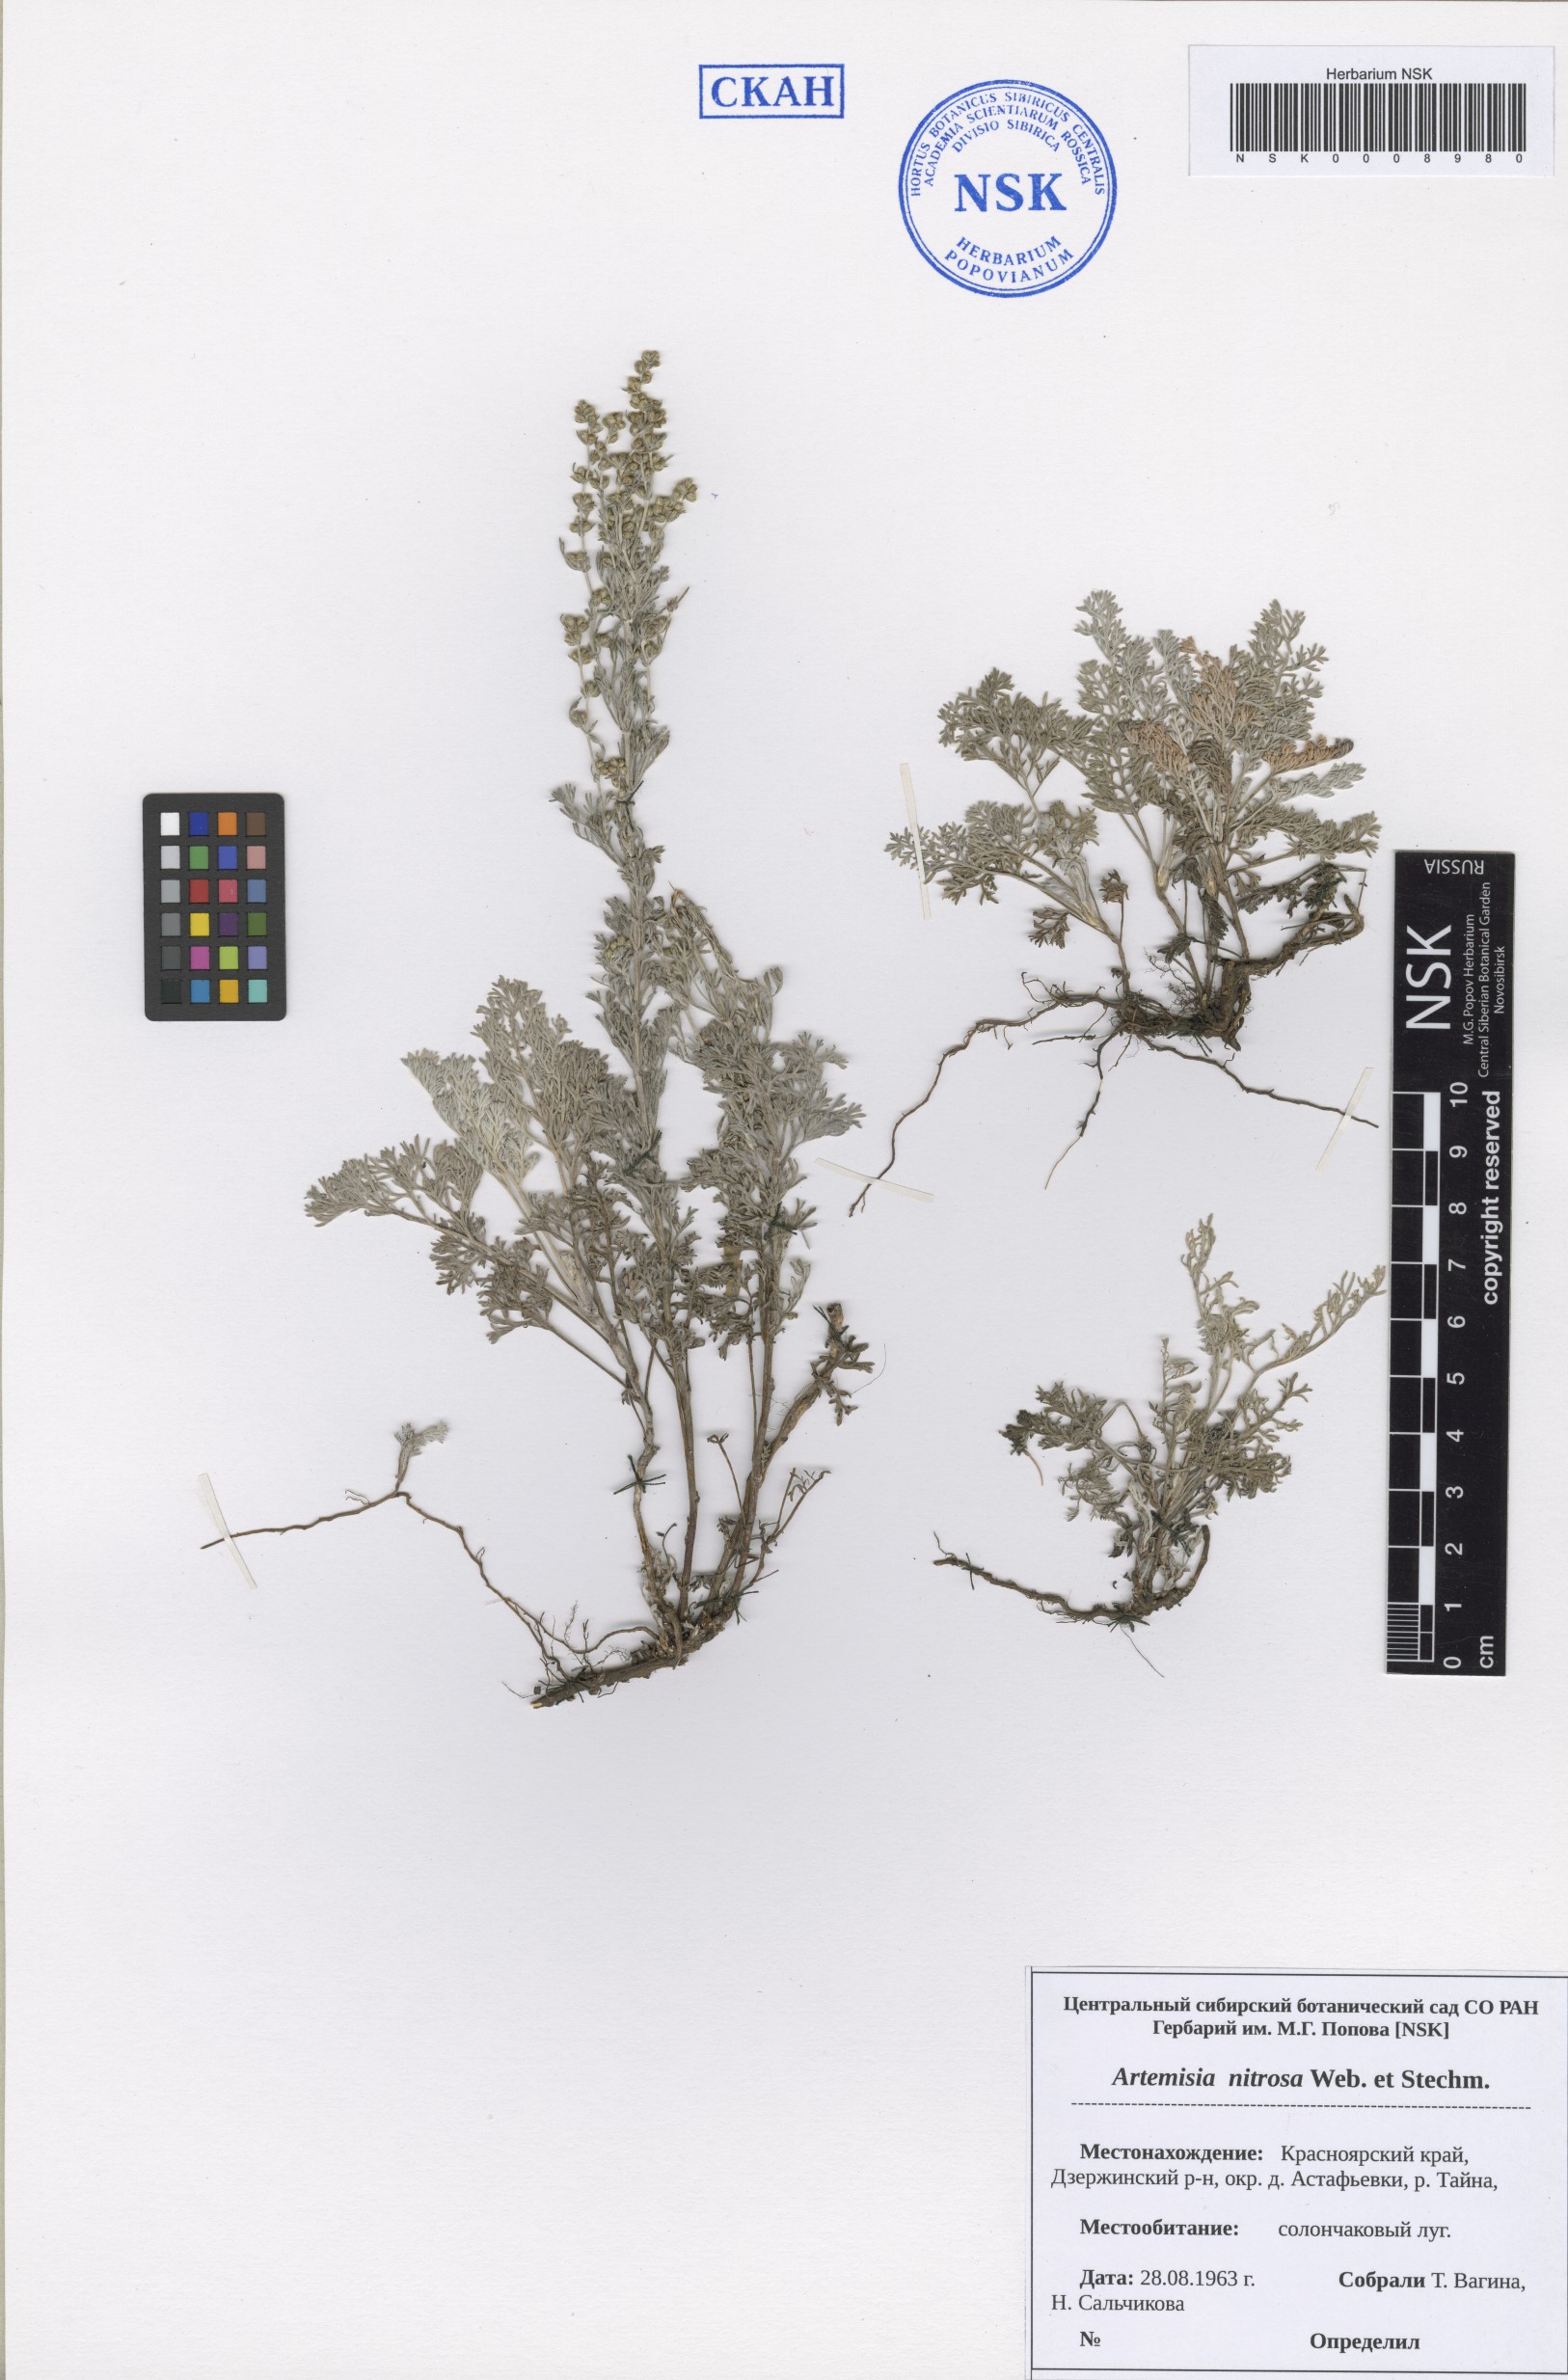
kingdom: Plantae
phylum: Tracheophyta
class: Magnoliopsida
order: Asterales
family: Asteraceae
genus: Artemisia
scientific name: Artemisia nitrosa
